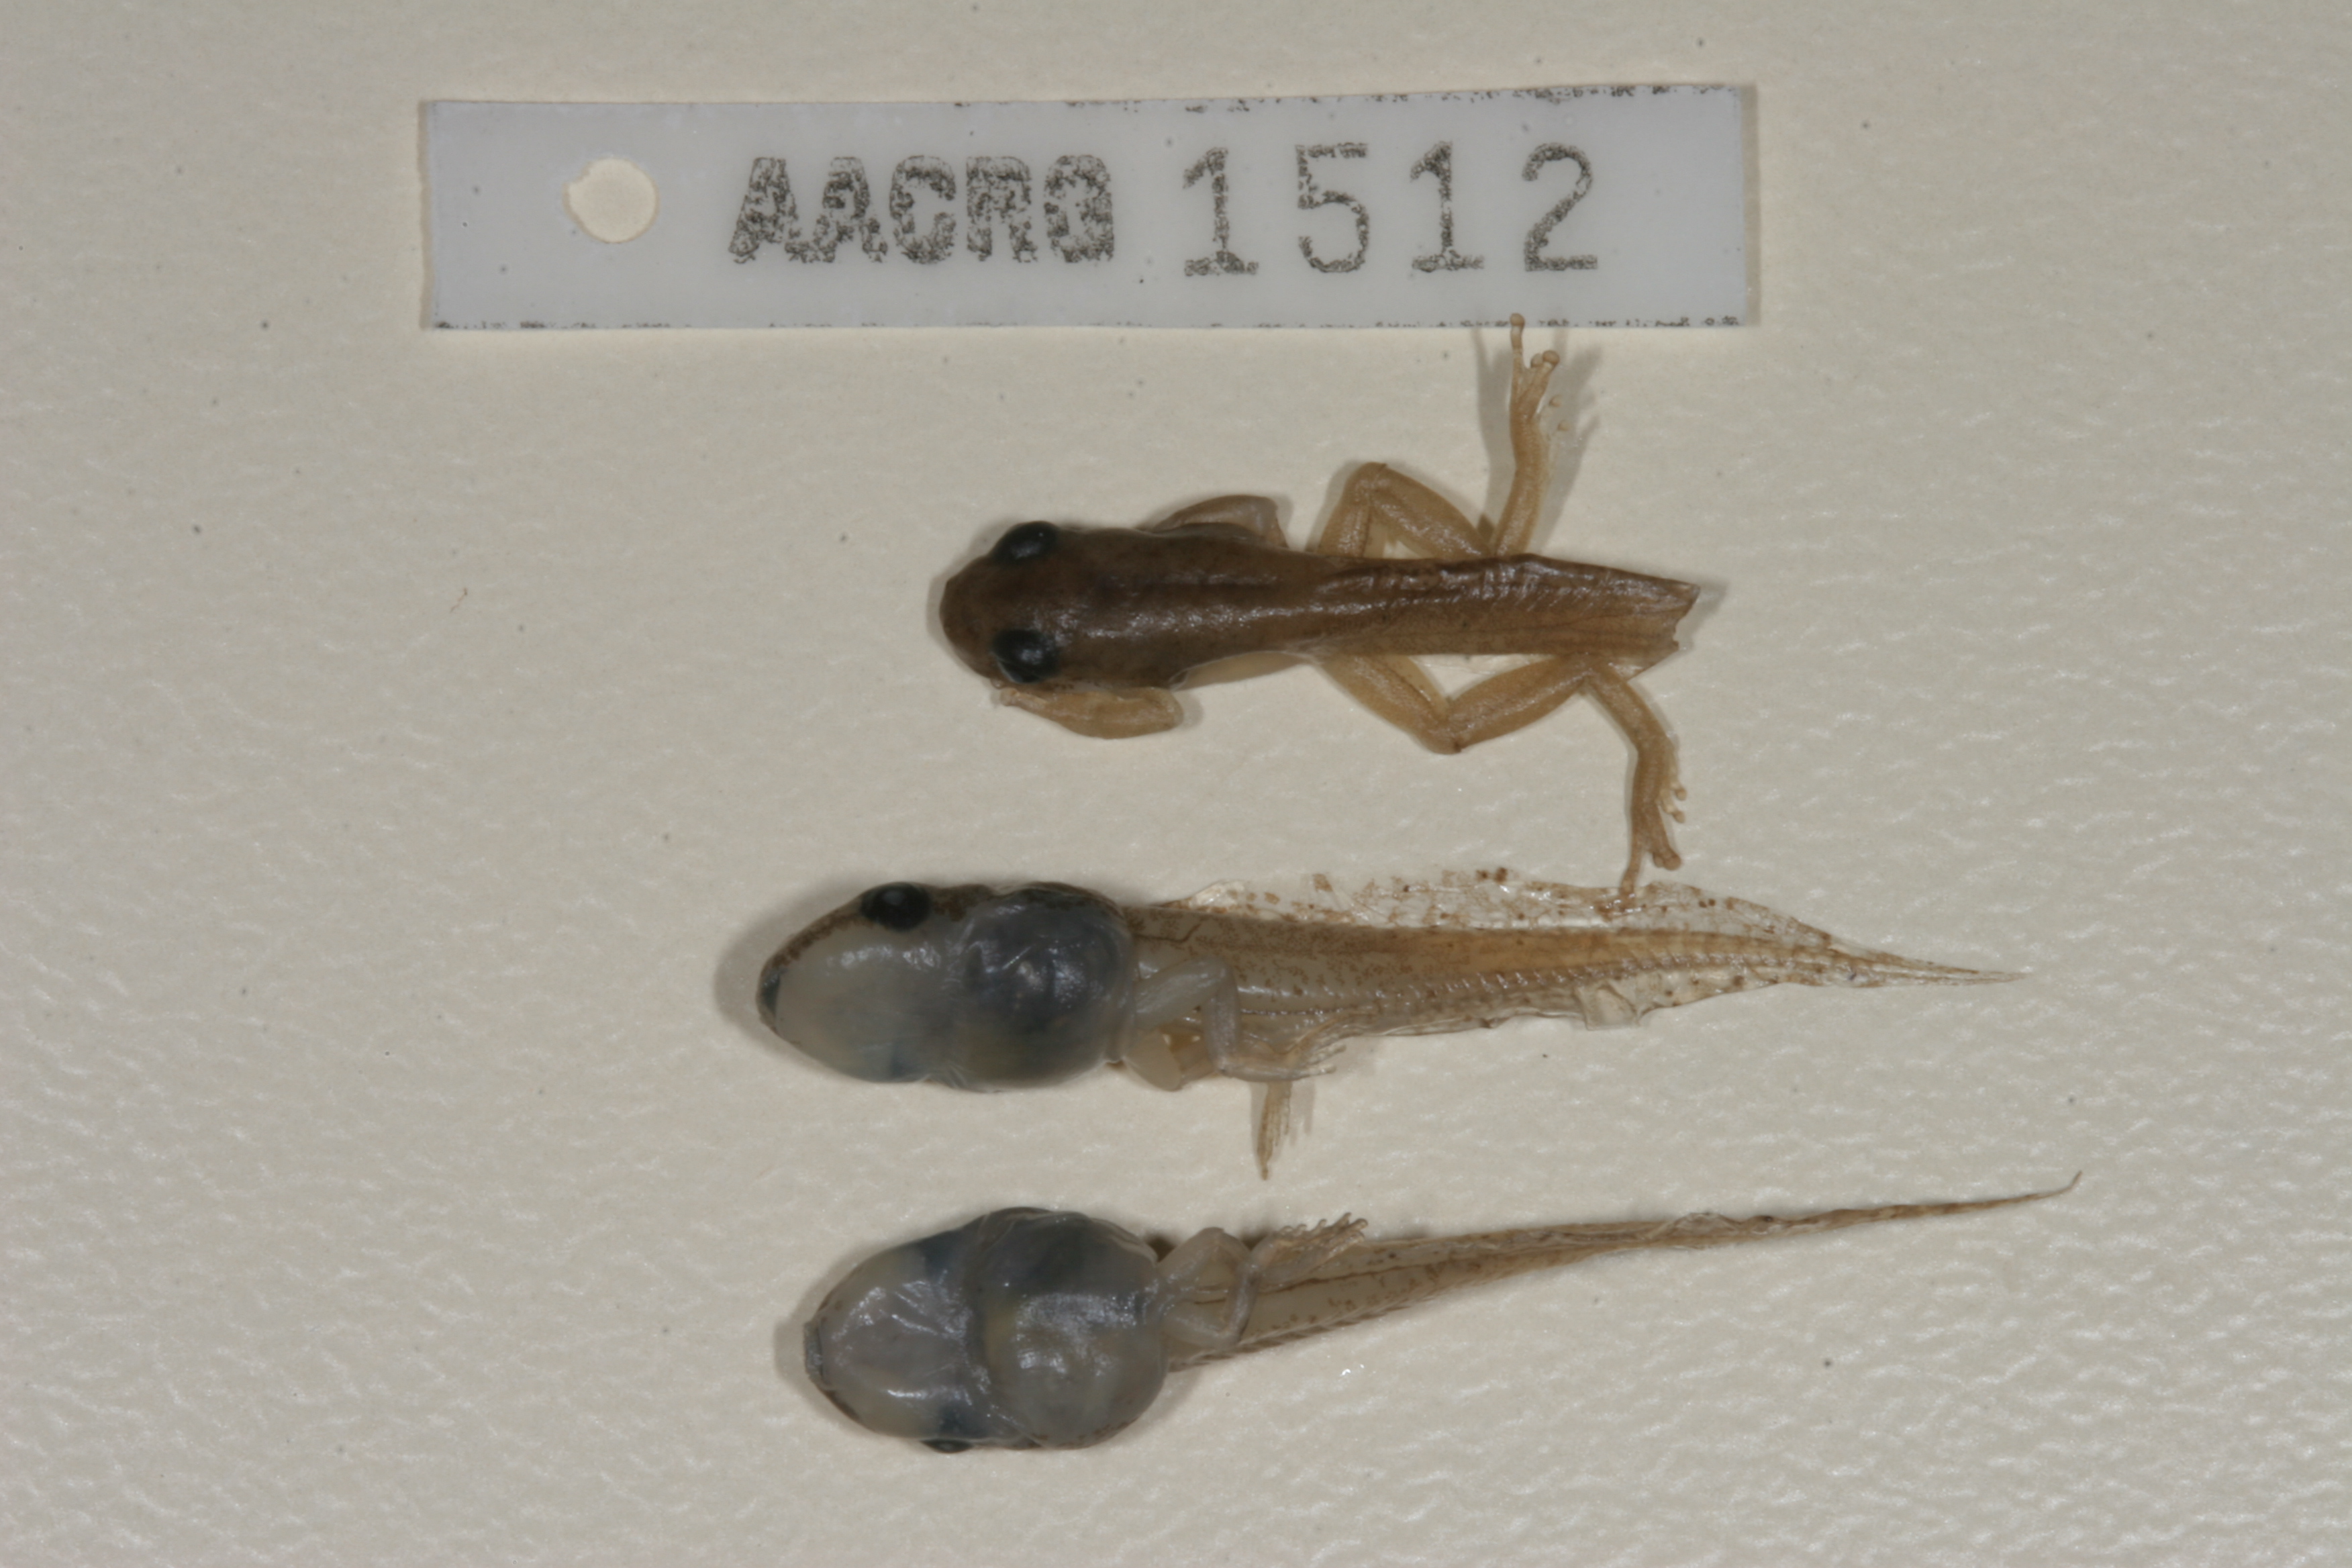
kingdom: Animalia
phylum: Chordata
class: Amphibia
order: Anura
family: Hyperoliidae
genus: Afrixalus
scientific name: Afrixalus aureus
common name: Golden banana frog
